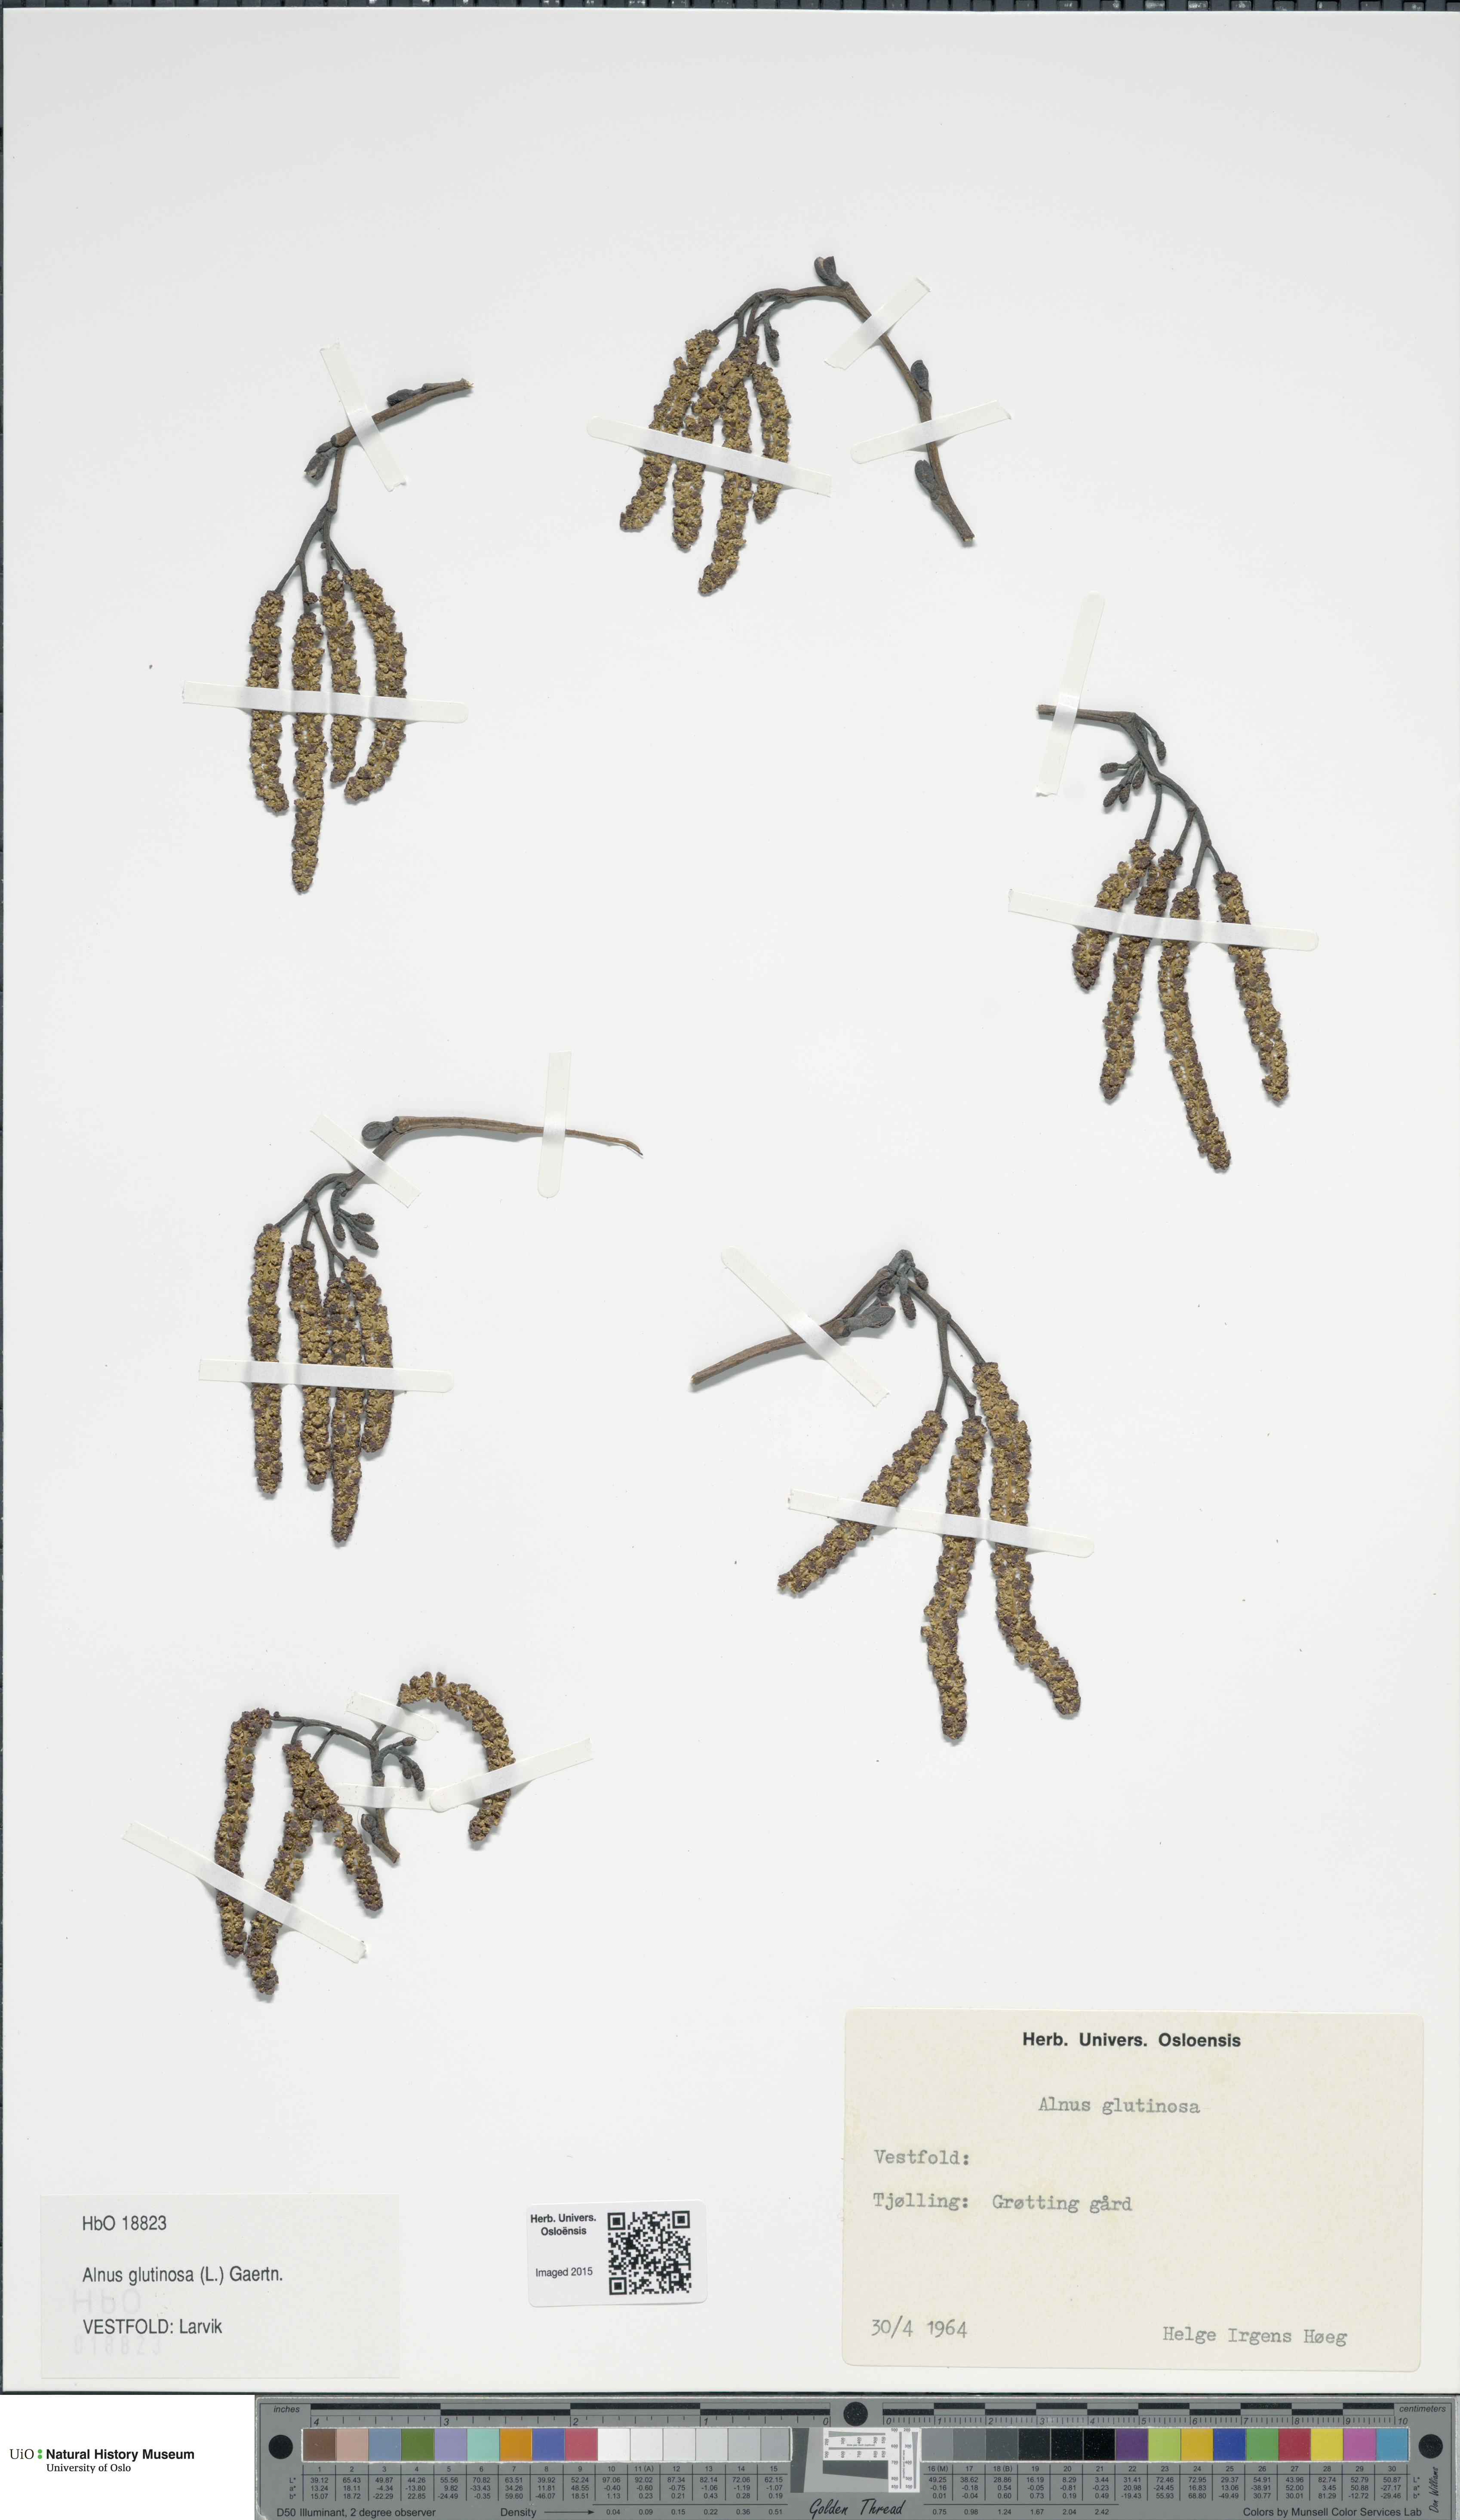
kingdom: Plantae
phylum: Tracheophyta
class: Magnoliopsida
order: Fagales
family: Betulaceae
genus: Alnus
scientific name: Alnus glutinosa
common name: Black alder
